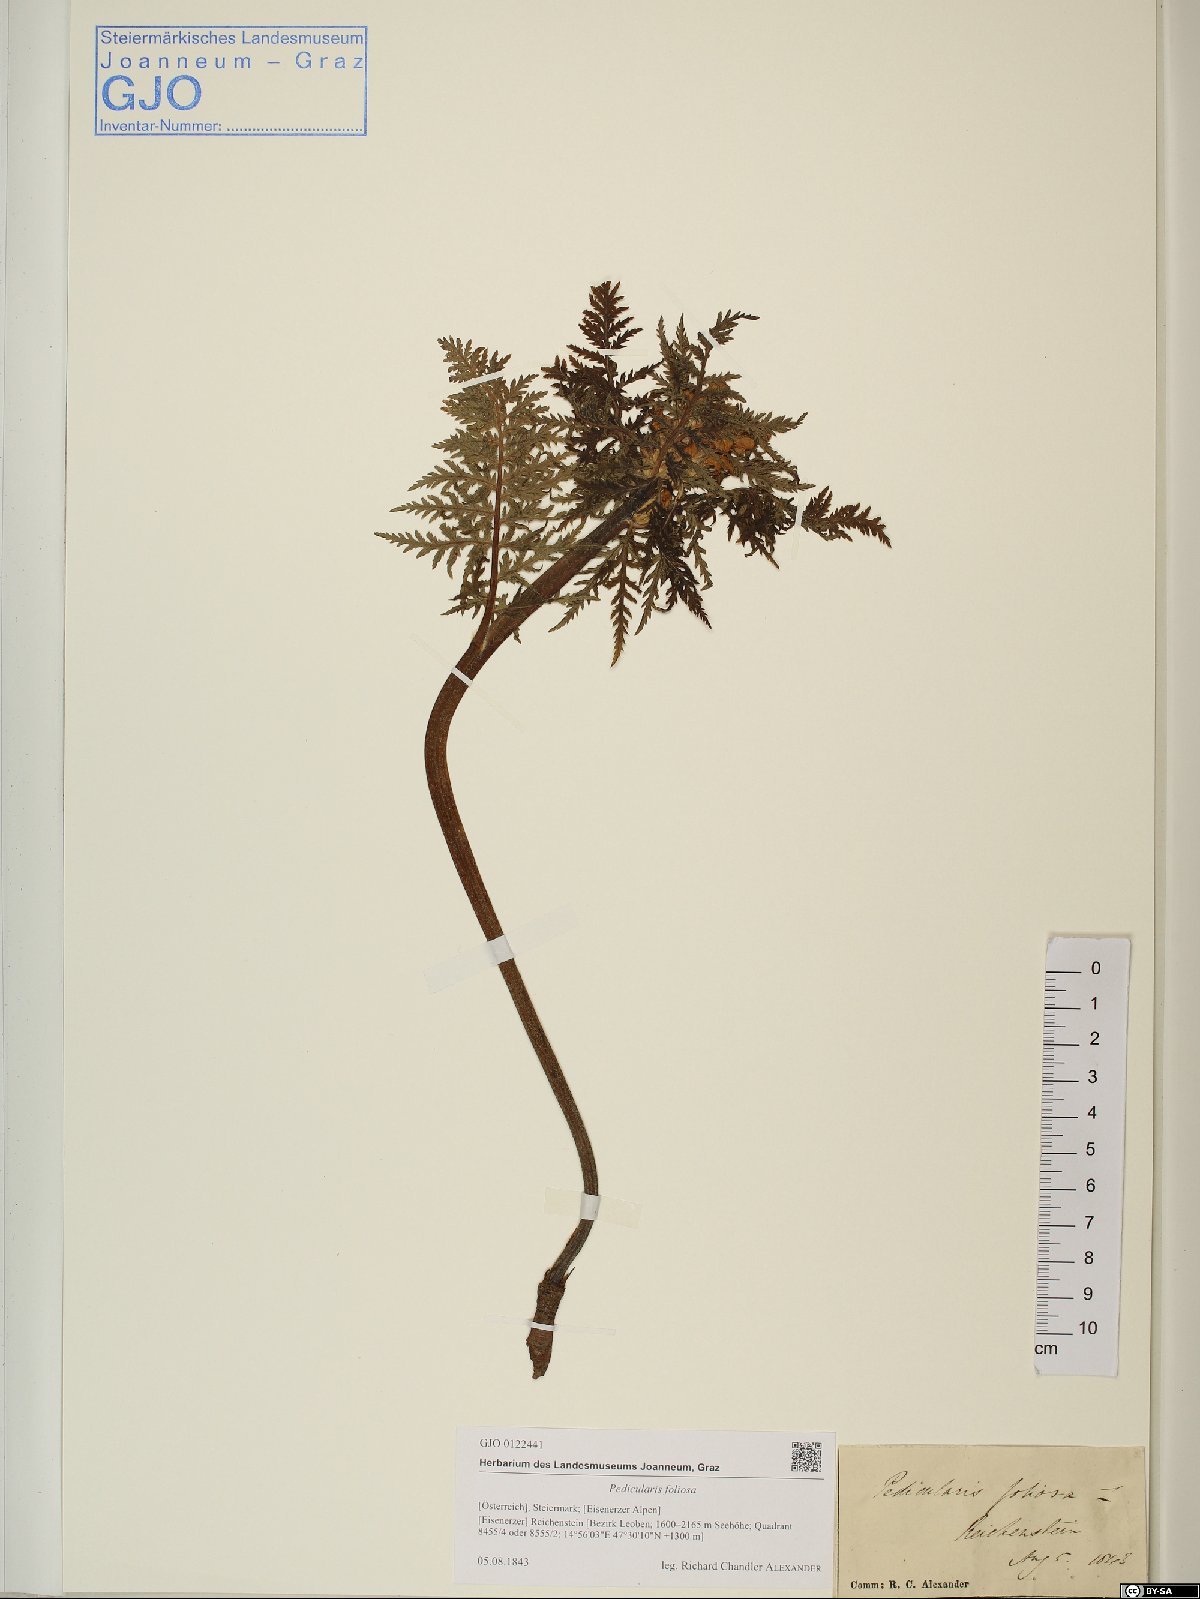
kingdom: Plantae
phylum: Tracheophyta
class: Magnoliopsida
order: Lamiales
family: Orobanchaceae
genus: Pedicularis
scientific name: Pedicularis foliosa
